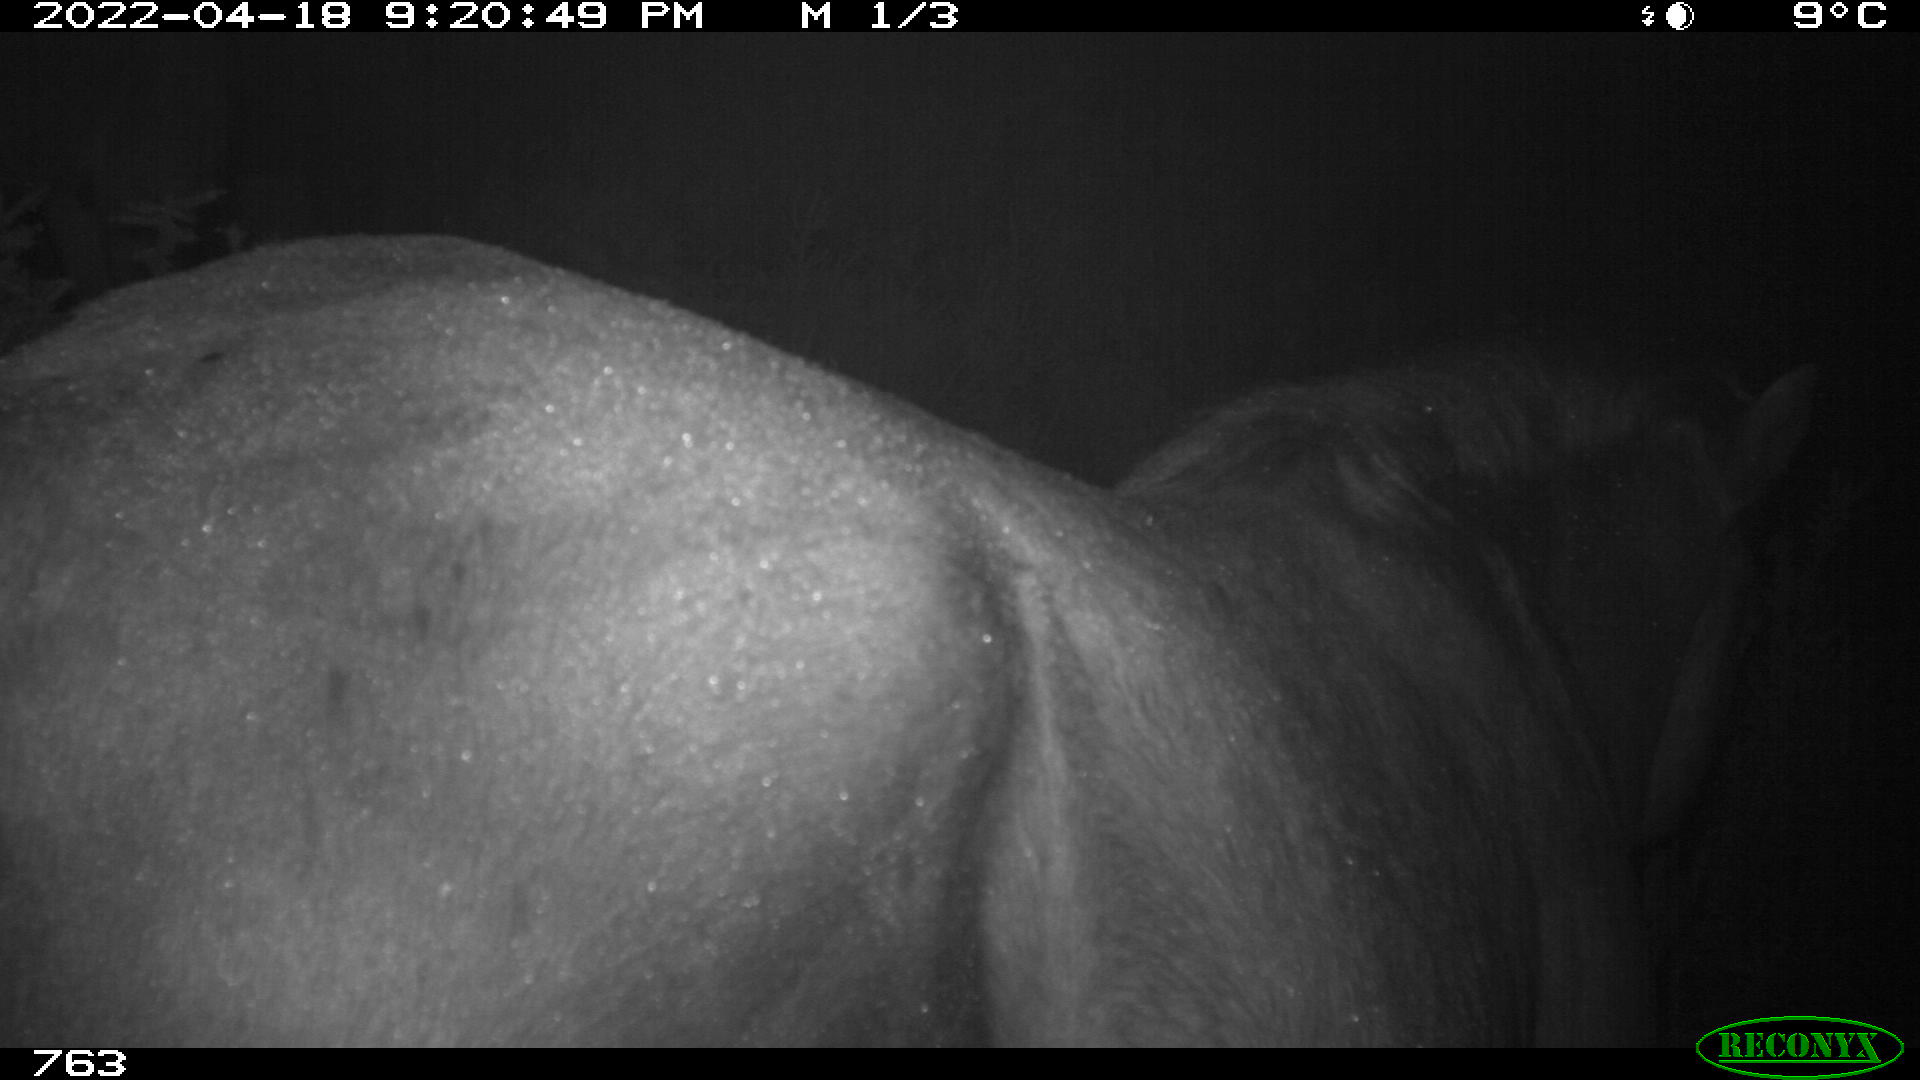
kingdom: Animalia
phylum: Chordata
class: Mammalia
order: Perissodactyla
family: Equidae
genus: Equus
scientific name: Equus caballus
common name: Horse
